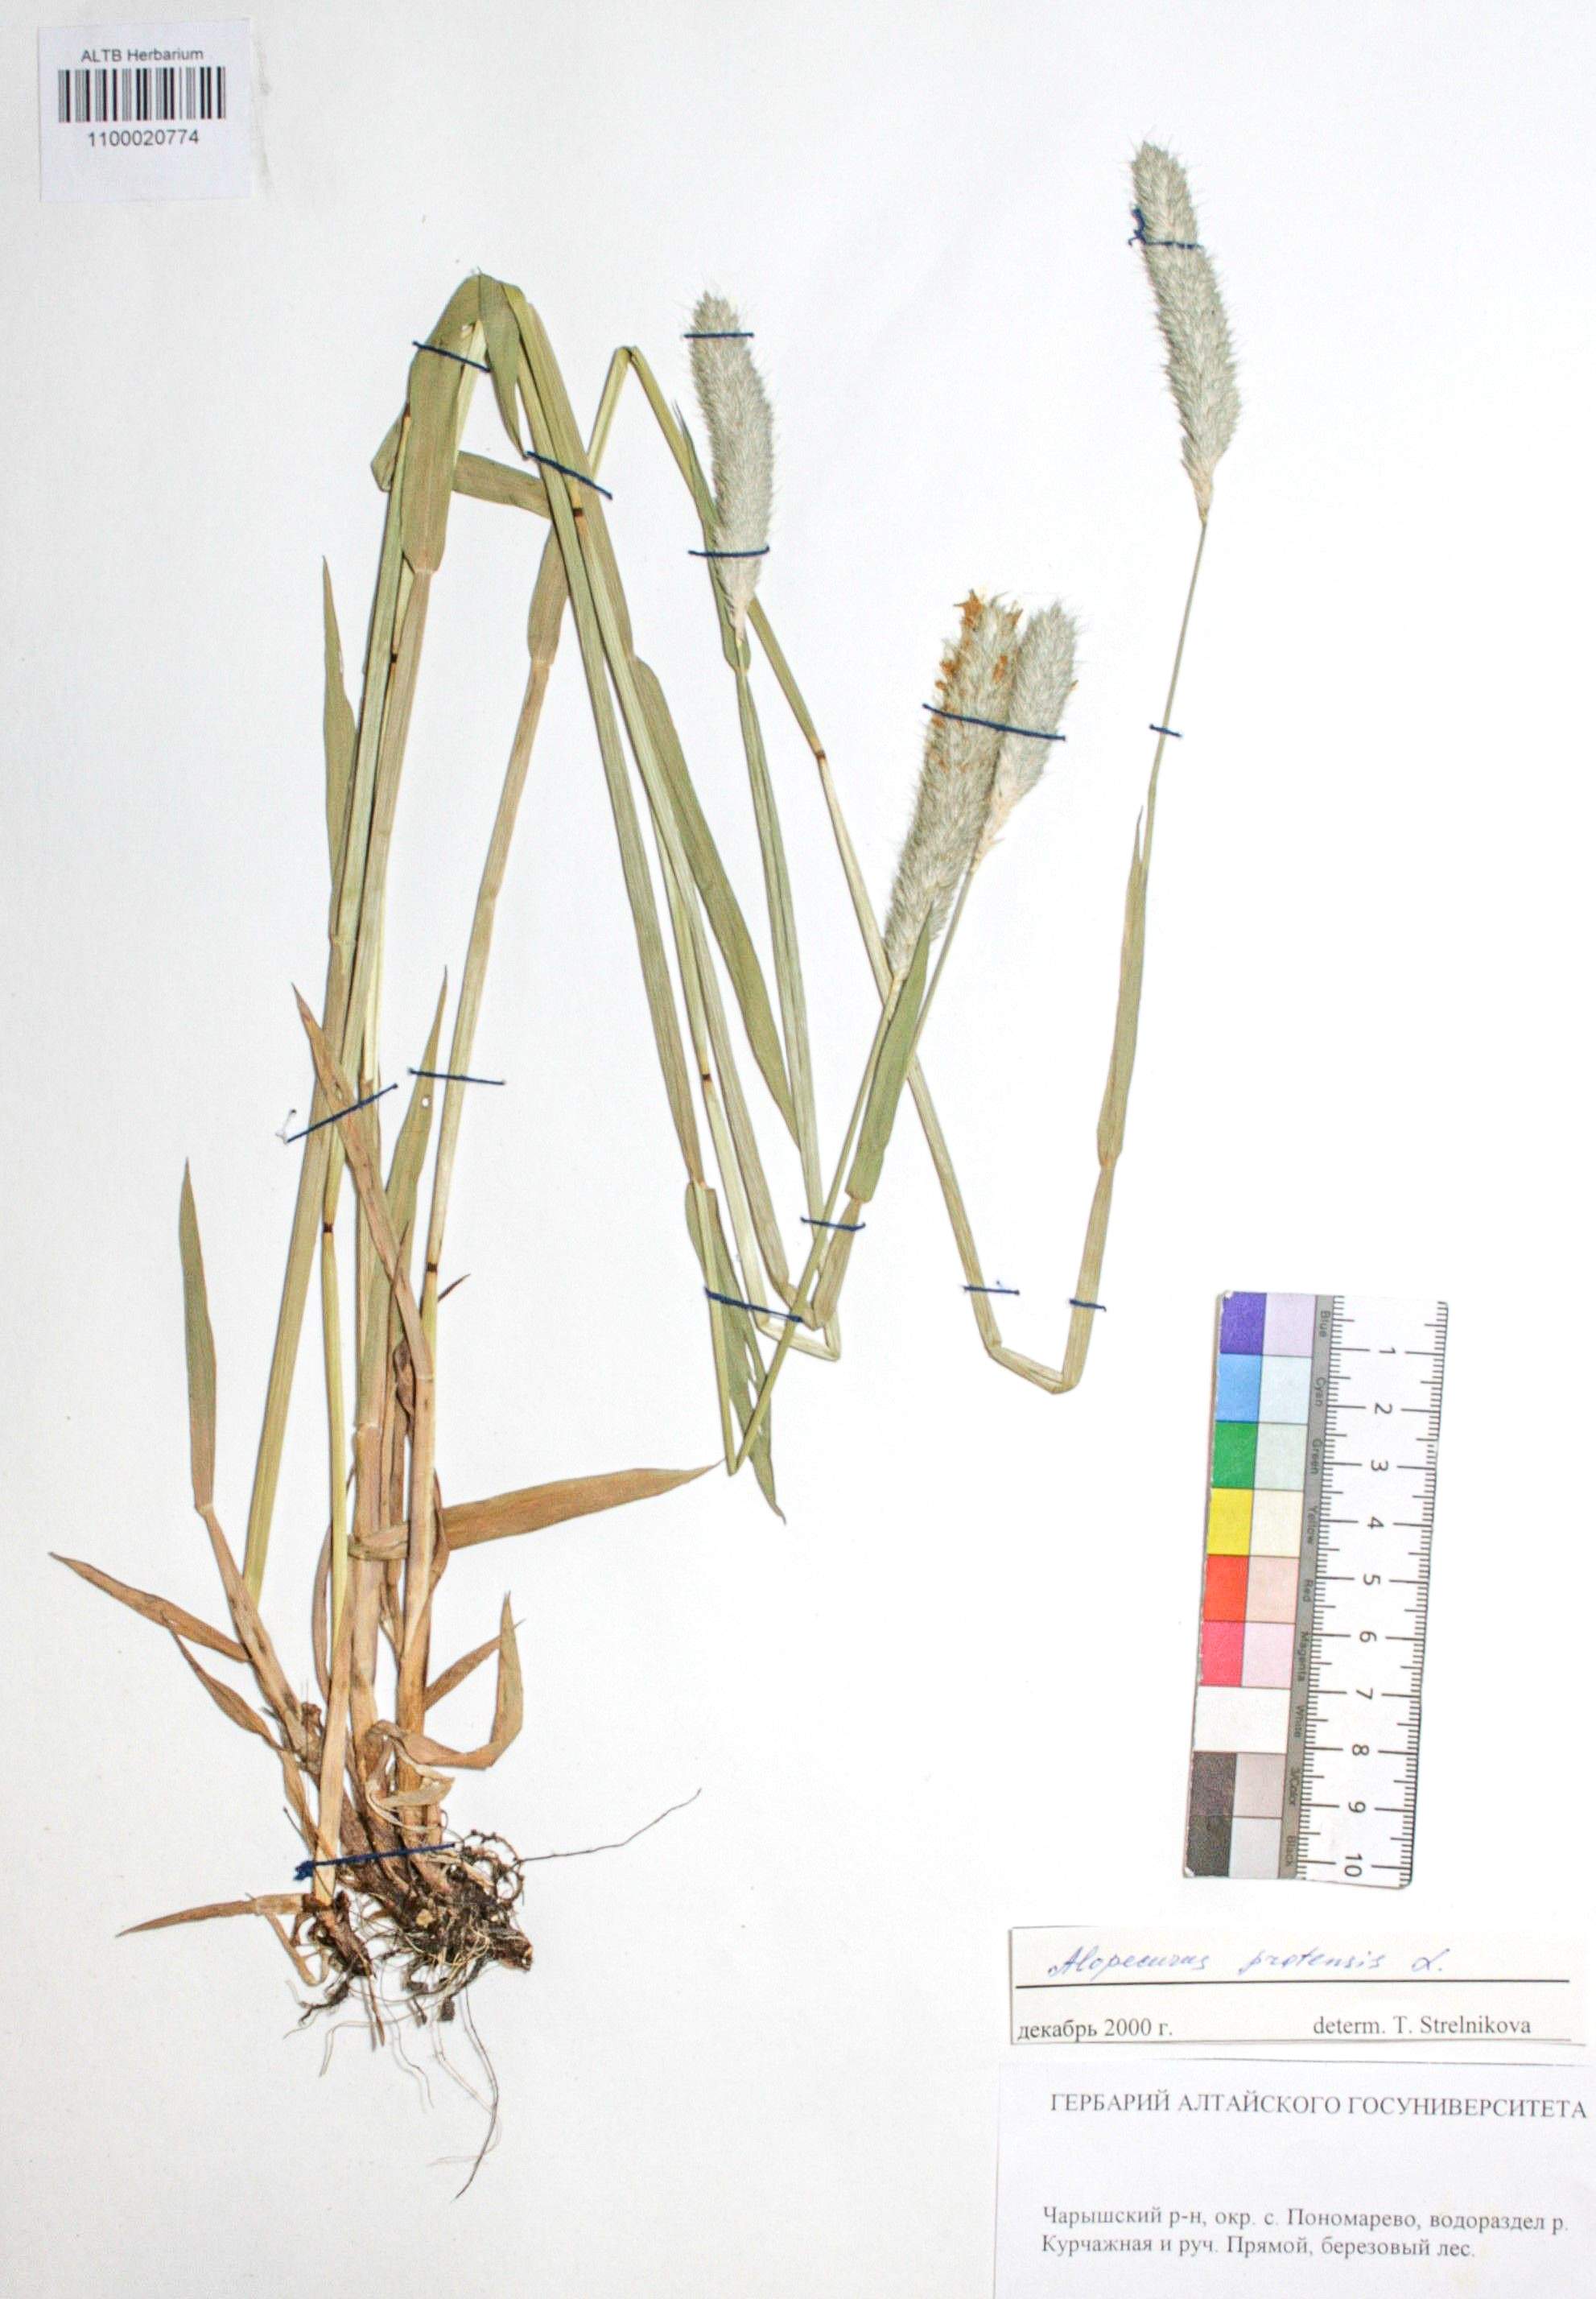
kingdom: Plantae
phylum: Tracheophyta
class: Liliopsida
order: Poales
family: Poaceae
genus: Alopecurus
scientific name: Alopecurus pratensis
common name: Meadow foxtail
